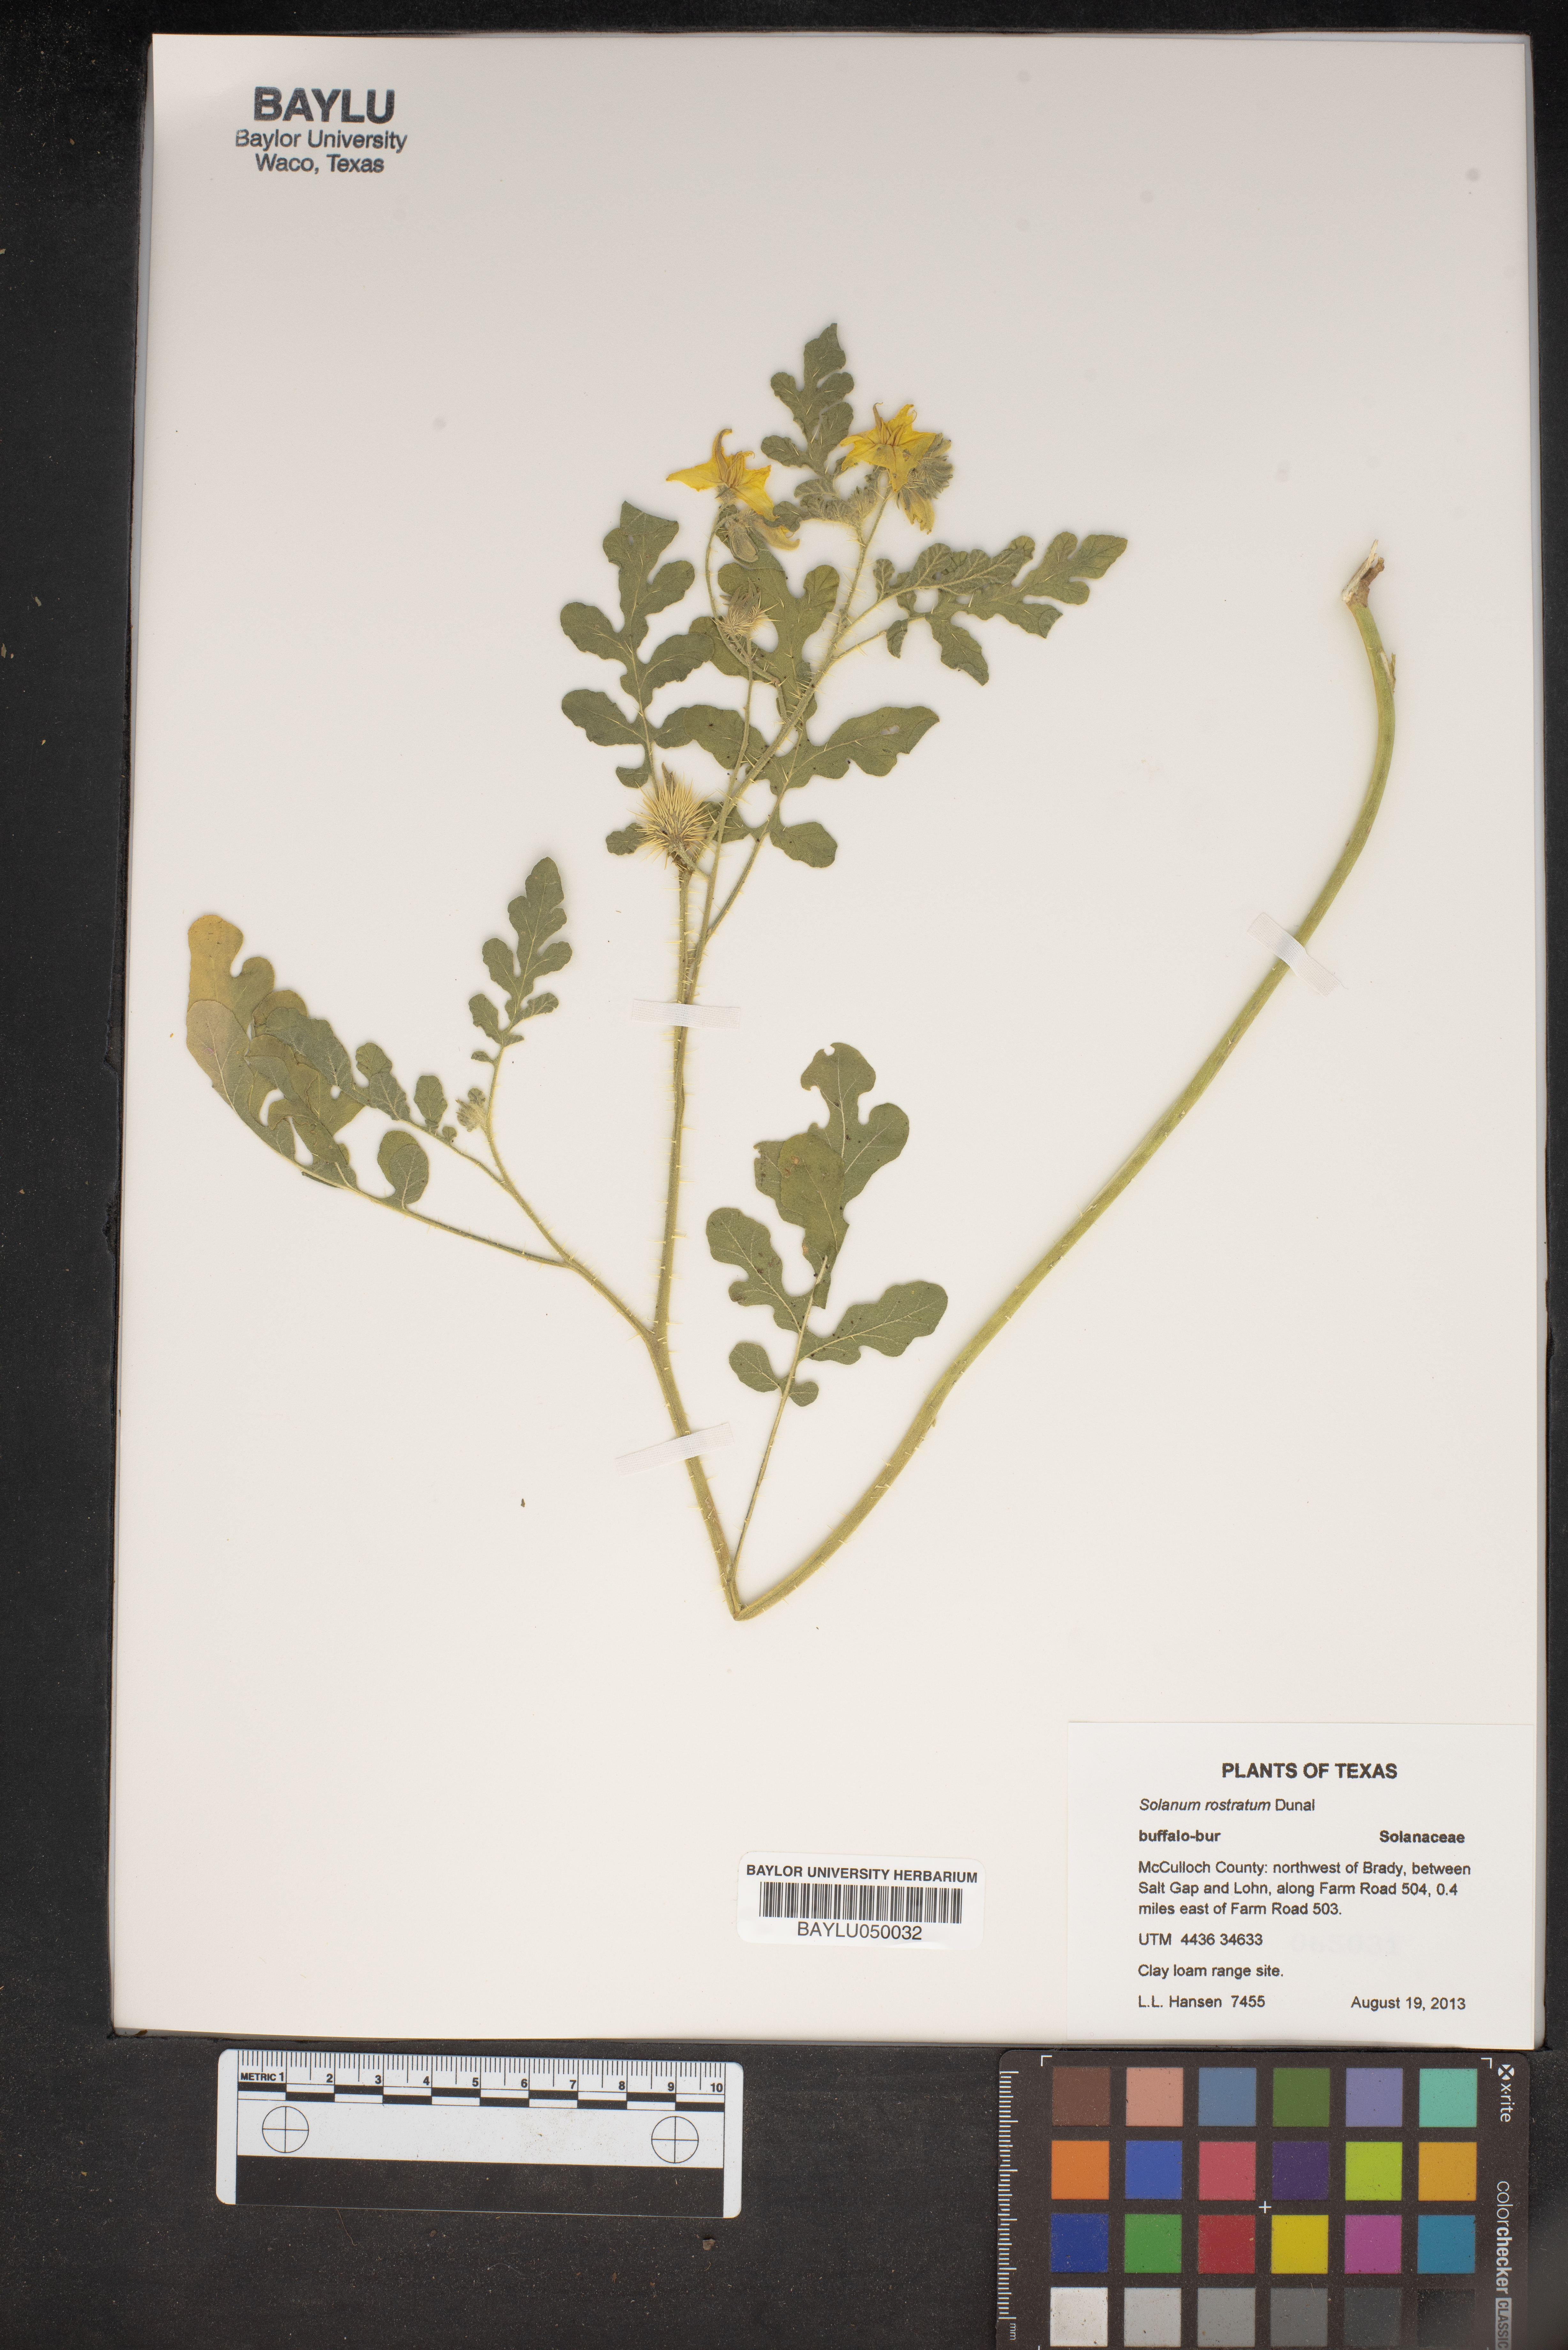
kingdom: Plantae
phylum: Tracheophyta
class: Magnoliopsida
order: Solanales
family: Solanaceae
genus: Solanum
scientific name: Solanum angustifolium
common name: Buffalobur nightshade
